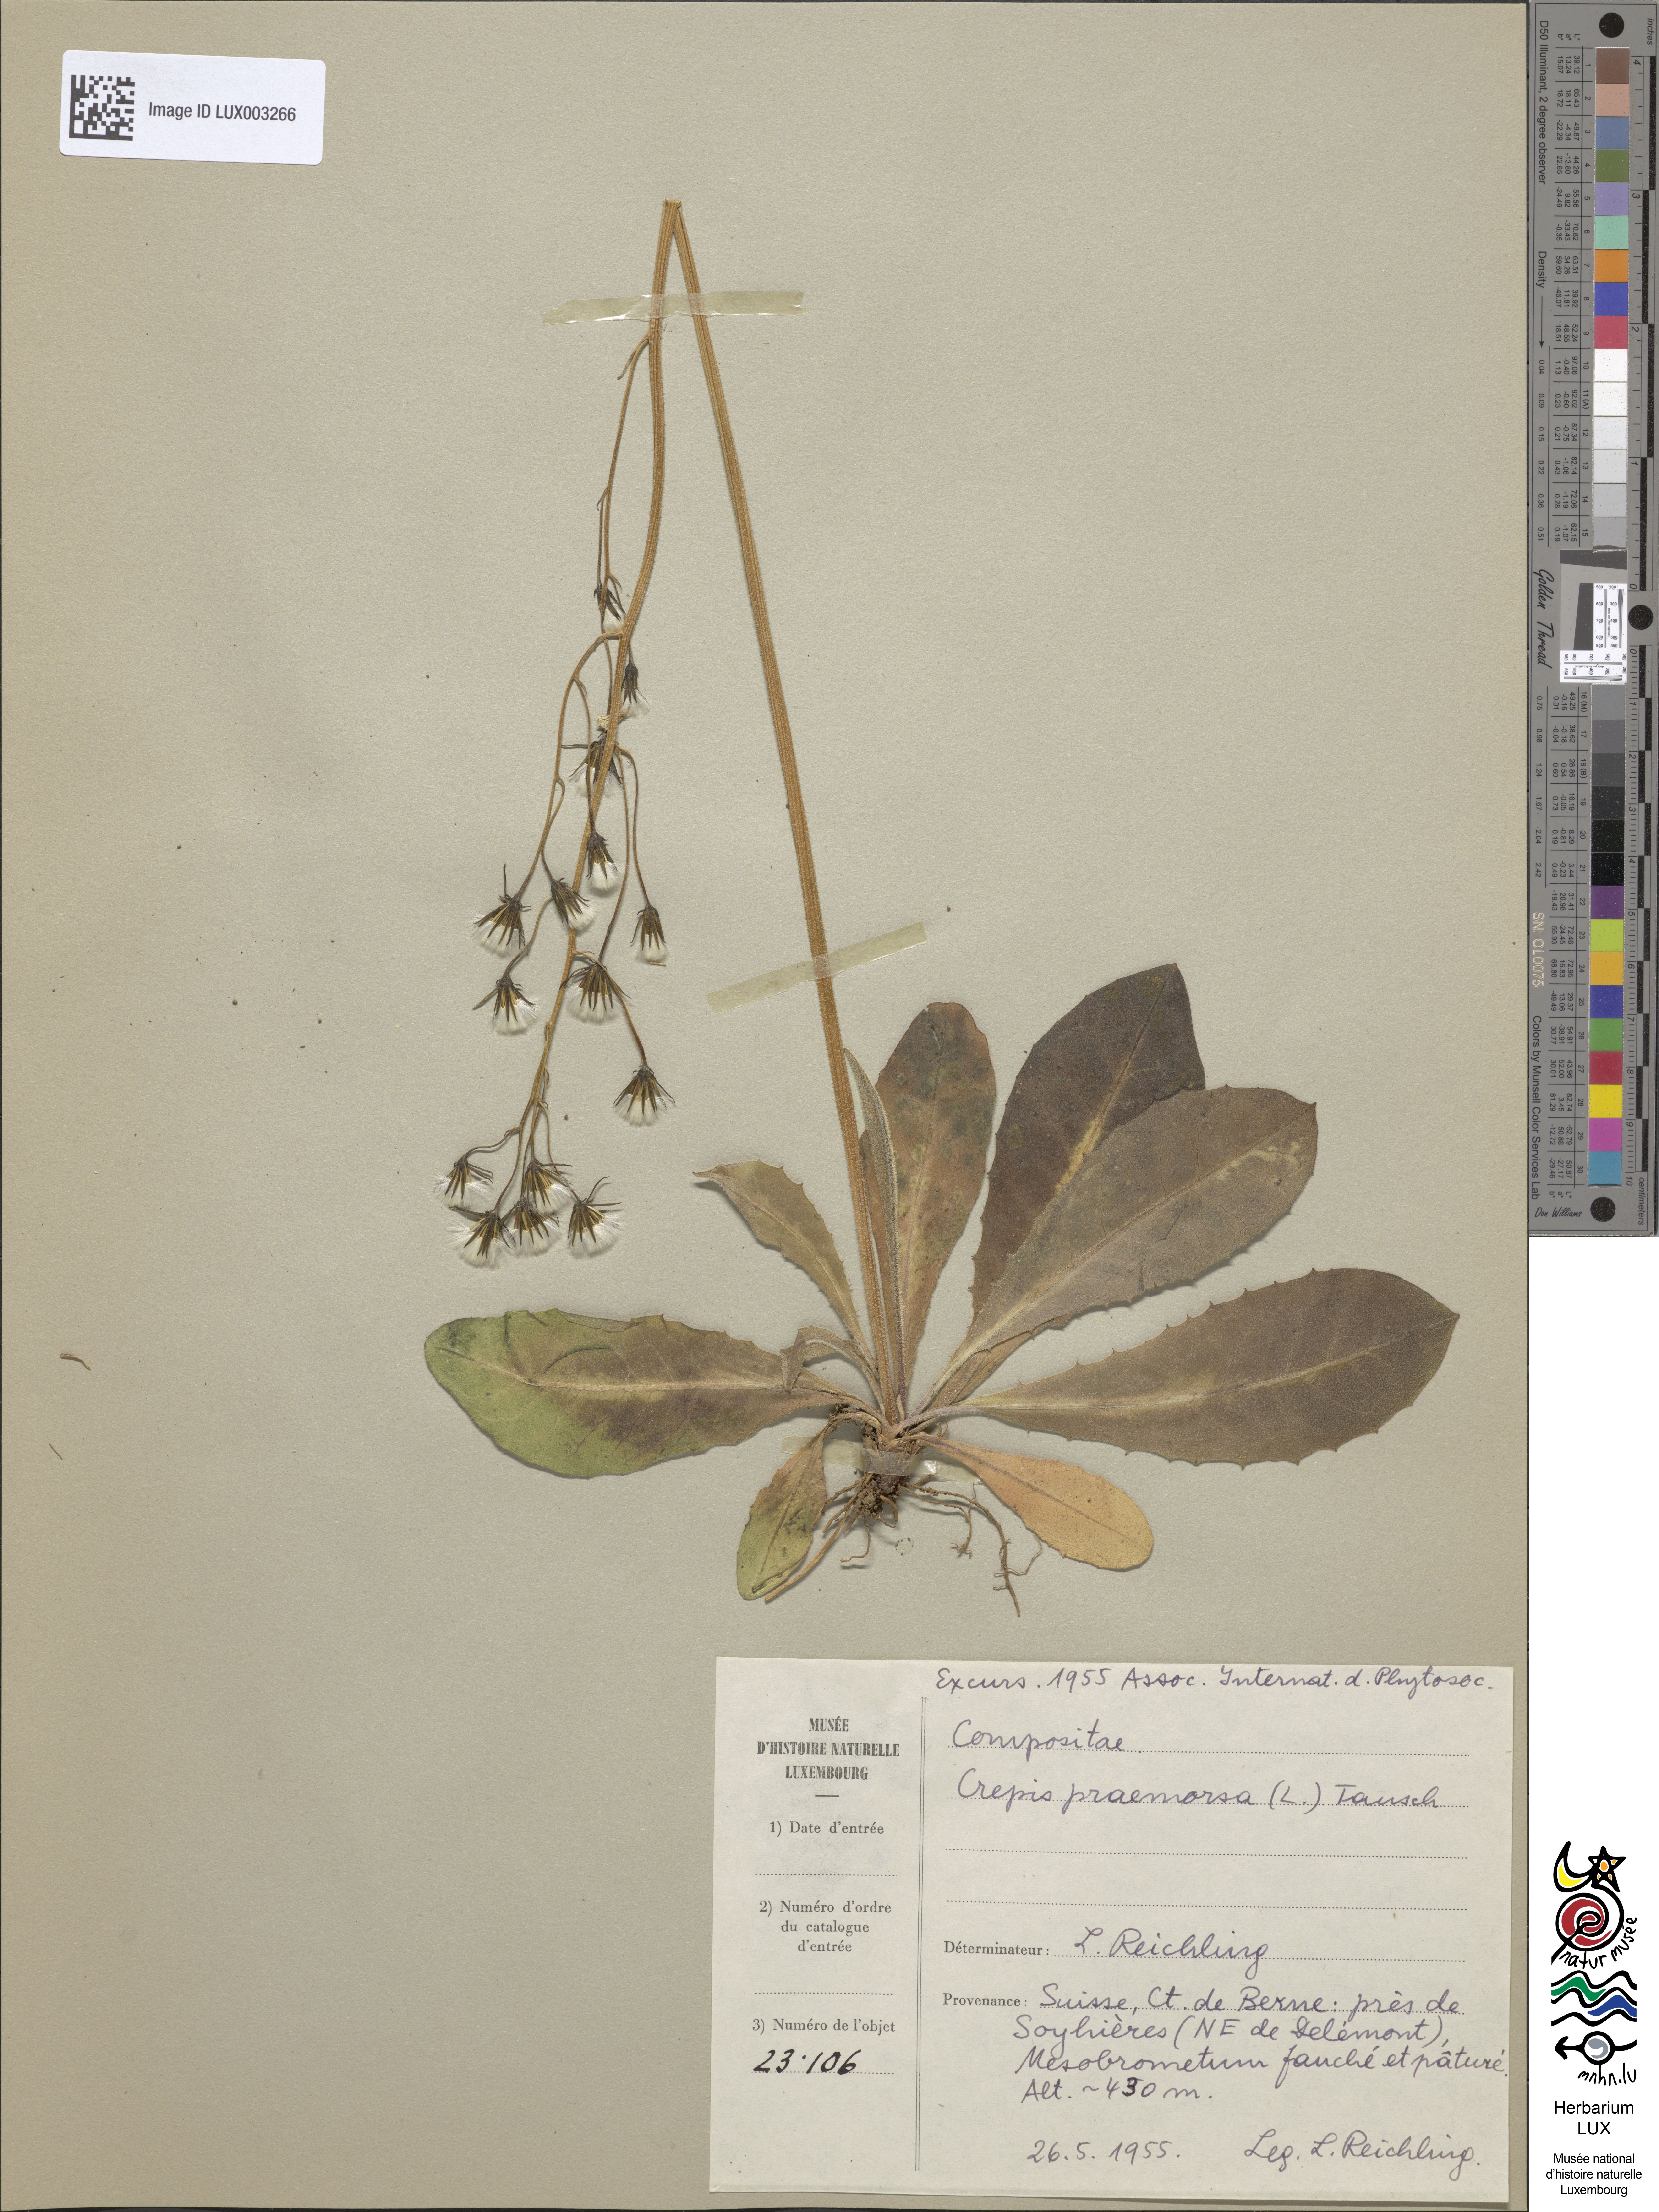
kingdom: Plantae
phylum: Tracheophyta
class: Magnoliopsida
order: Asterales
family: Asteraceae
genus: Crepis
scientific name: Crepis praemorsa
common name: Leafless hawk's-beard
